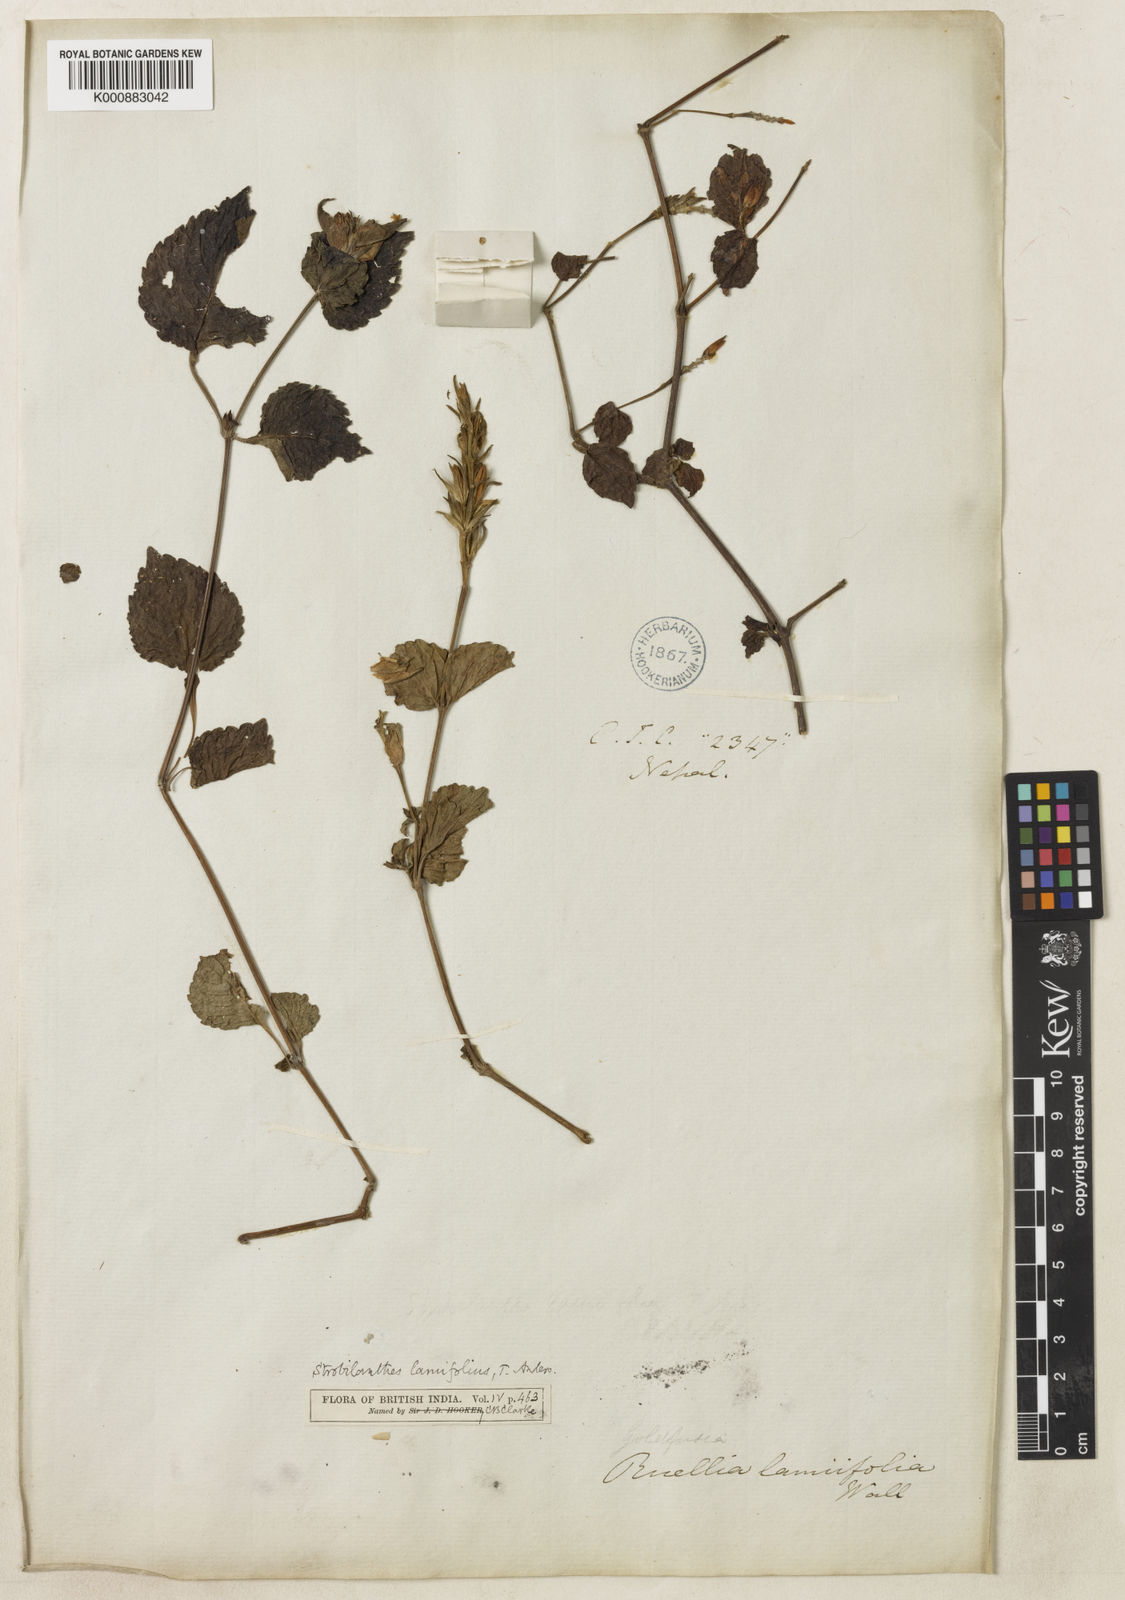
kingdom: Plantae
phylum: Tracheophyta
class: Magnoliopsida
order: Lamiales
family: Acanthaceae
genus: Strobilanthes
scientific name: Strobilanthes lamiifolia
